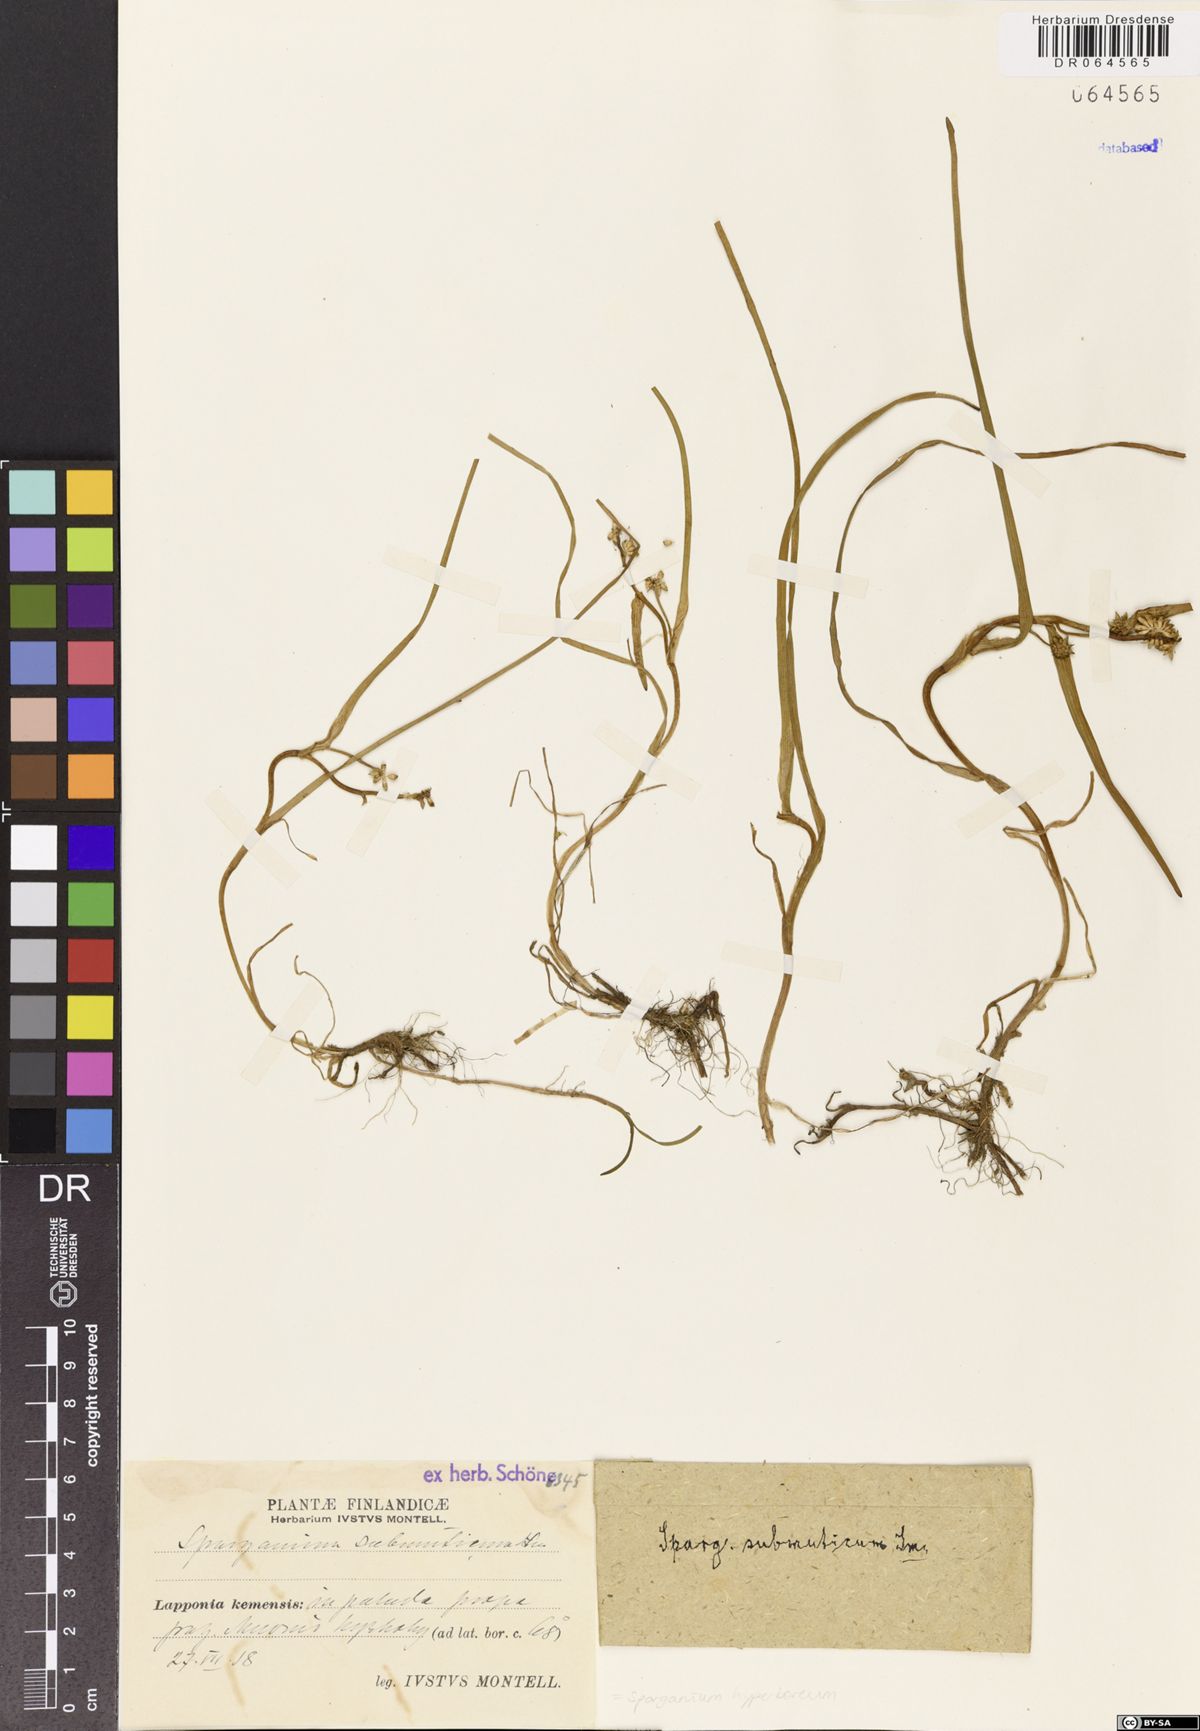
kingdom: Plantae
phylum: Tracheophyta
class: Liliopsida
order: Poales
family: Typhaceae
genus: Sparganium
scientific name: Sparganium hyperboreum
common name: Arctic burreed
